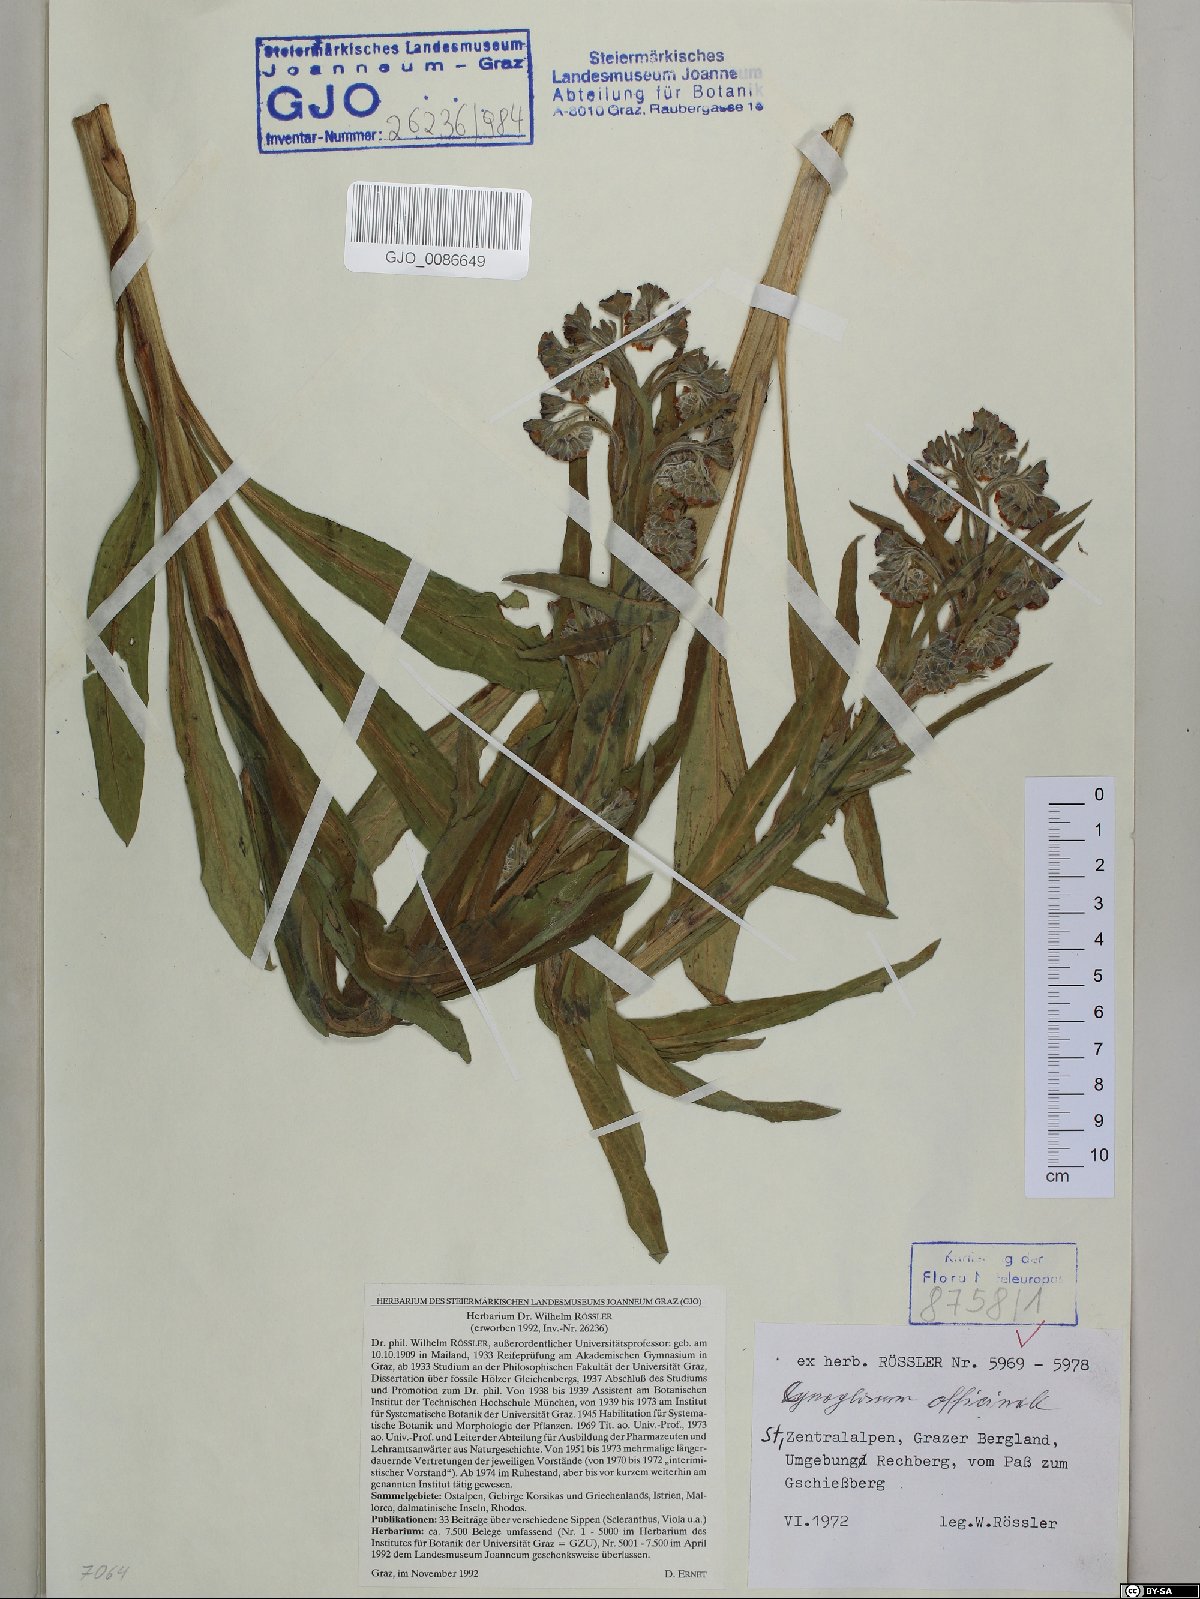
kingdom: Plantae
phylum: Tracheophyta
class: Magnoliopsida
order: Boraginales
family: Boraginaceae
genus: Cynoglossum
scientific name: Cynoglossum officinale
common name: Hound's-tongue
